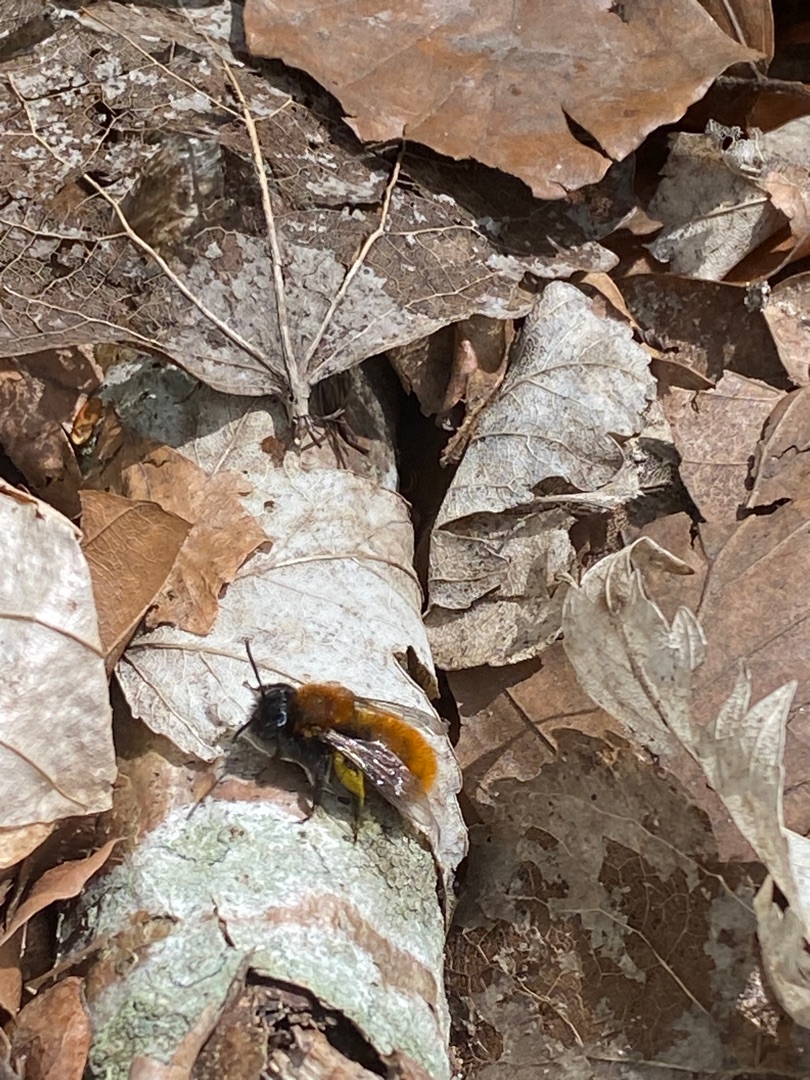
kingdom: Animalia
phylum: Arthropoda
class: Insecta
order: Hymenoptera
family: Andrenidae
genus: Andrena
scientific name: Andrena fulva
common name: Rødpelset jordbi
